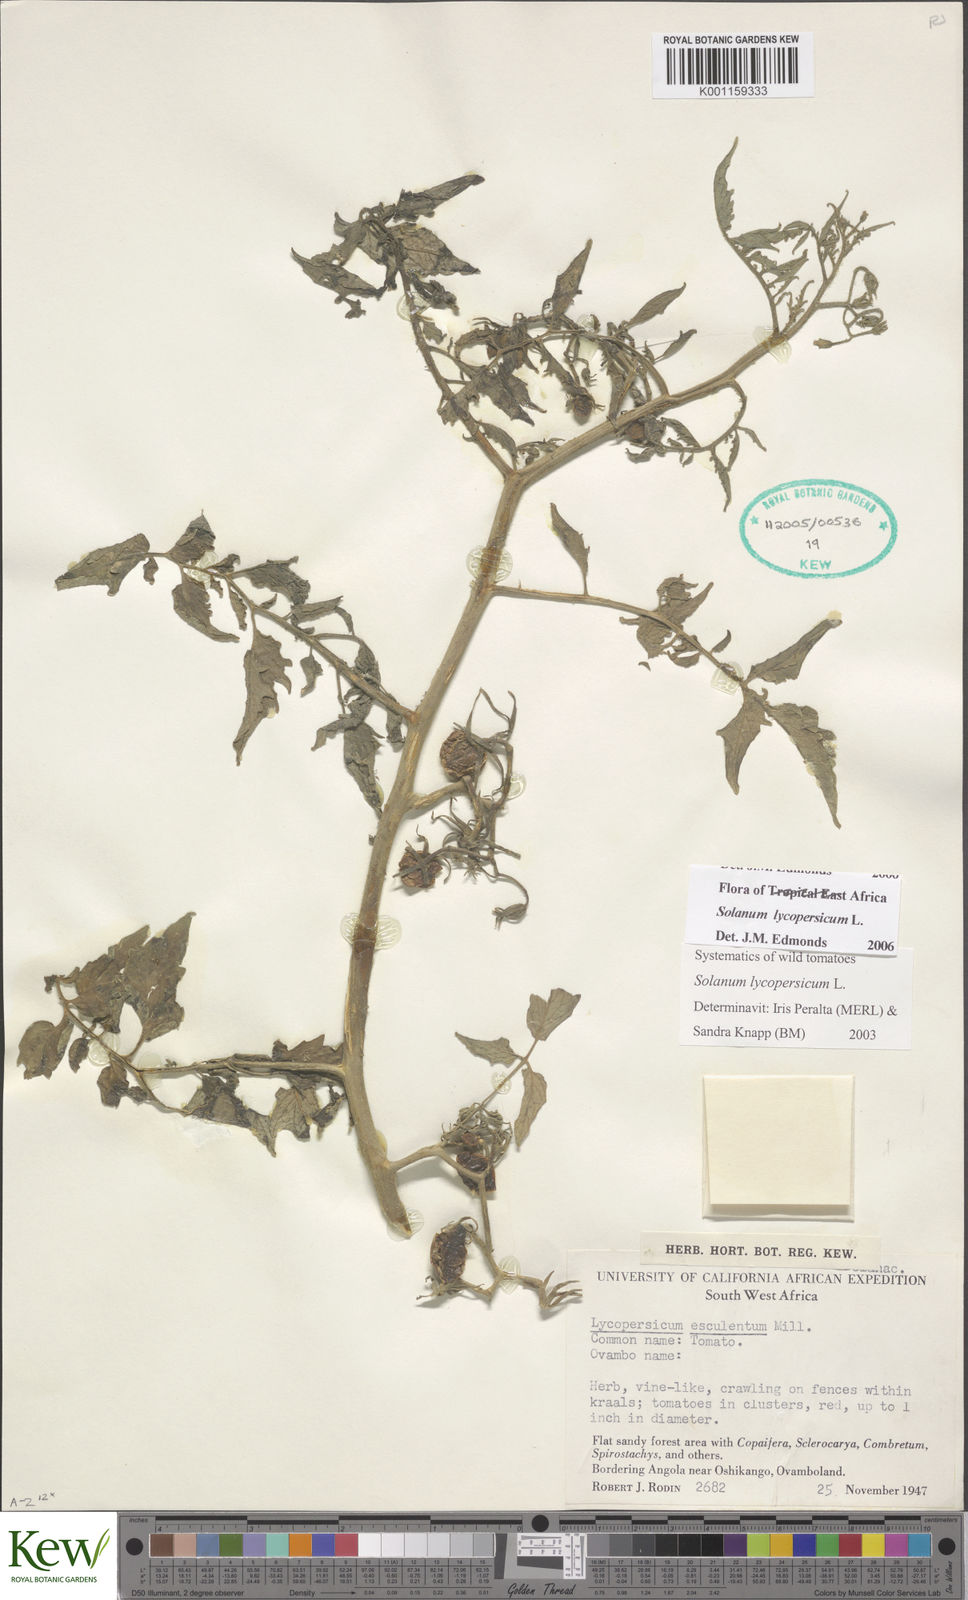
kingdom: Plantae
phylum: Tracheophyta
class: Magnoliopsida
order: Solanales
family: Solanaceae
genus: Solanum
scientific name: Solanum lycopersicum
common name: Garden tomato
